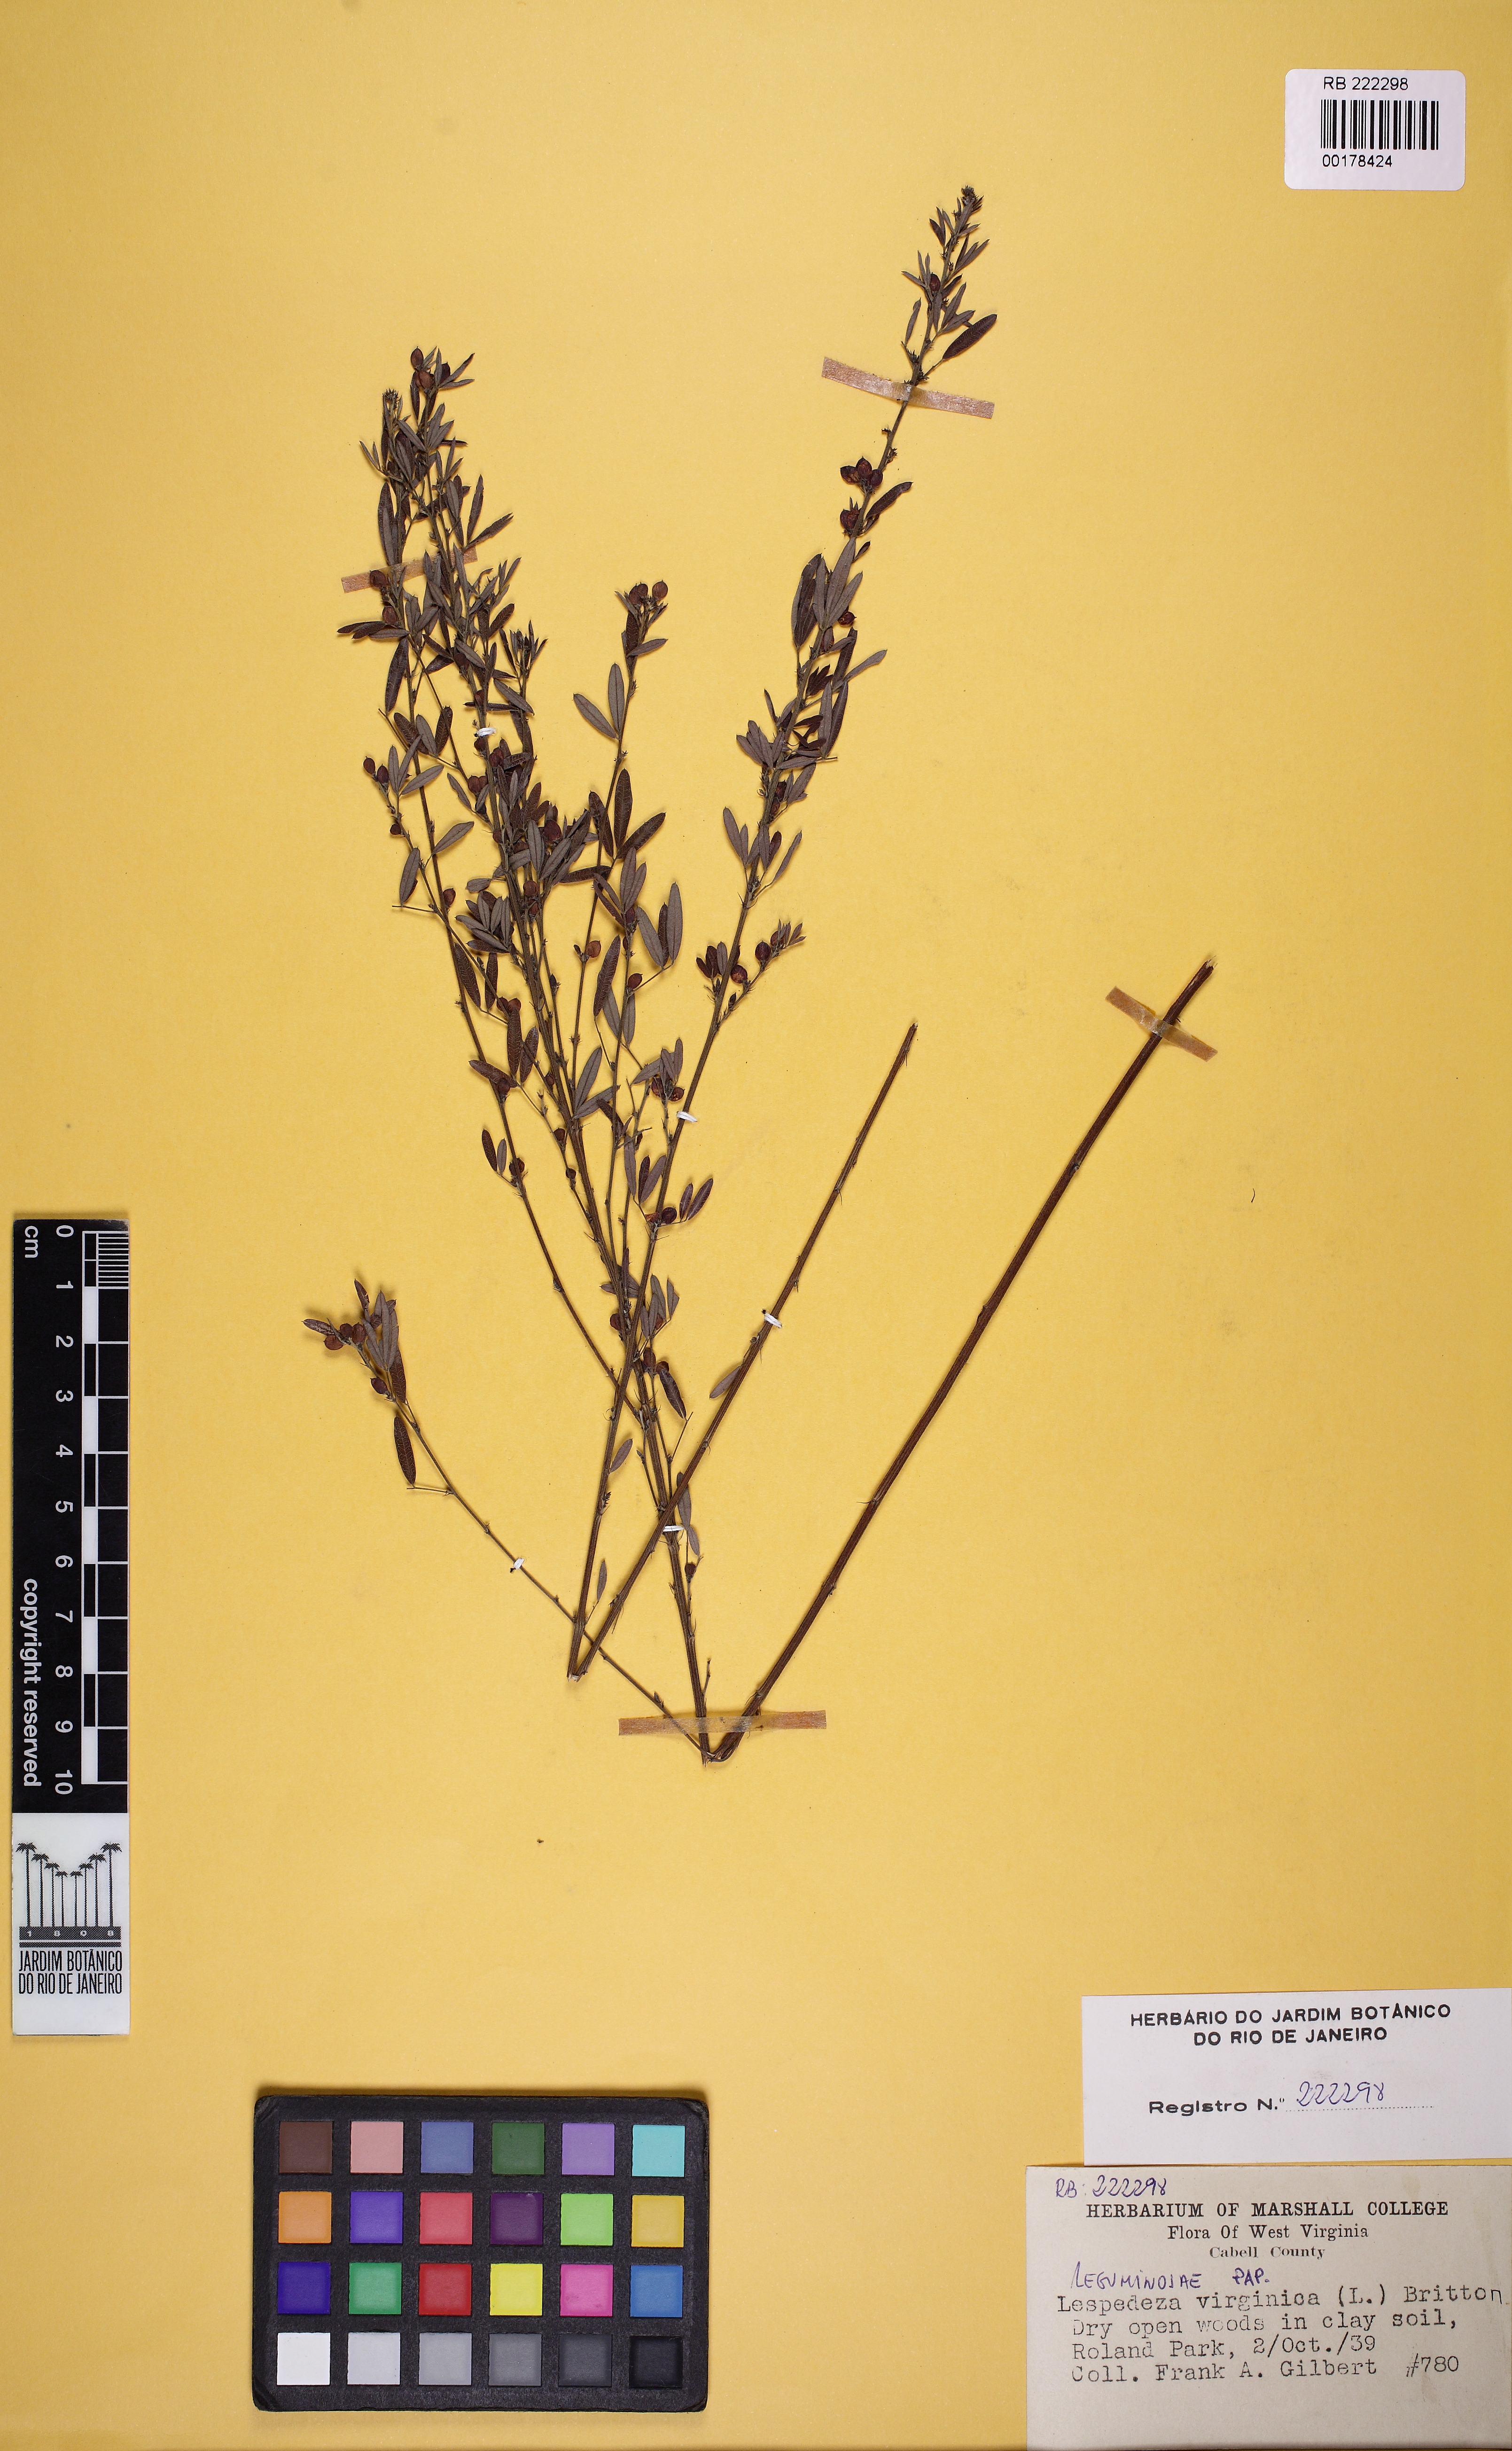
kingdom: Plantae
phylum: Tracheophyta
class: Magnoliopsida
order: Fabales
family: Fabaceae
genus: Lespedeza
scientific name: Lespedeza virginica
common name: Slender bush-clover
